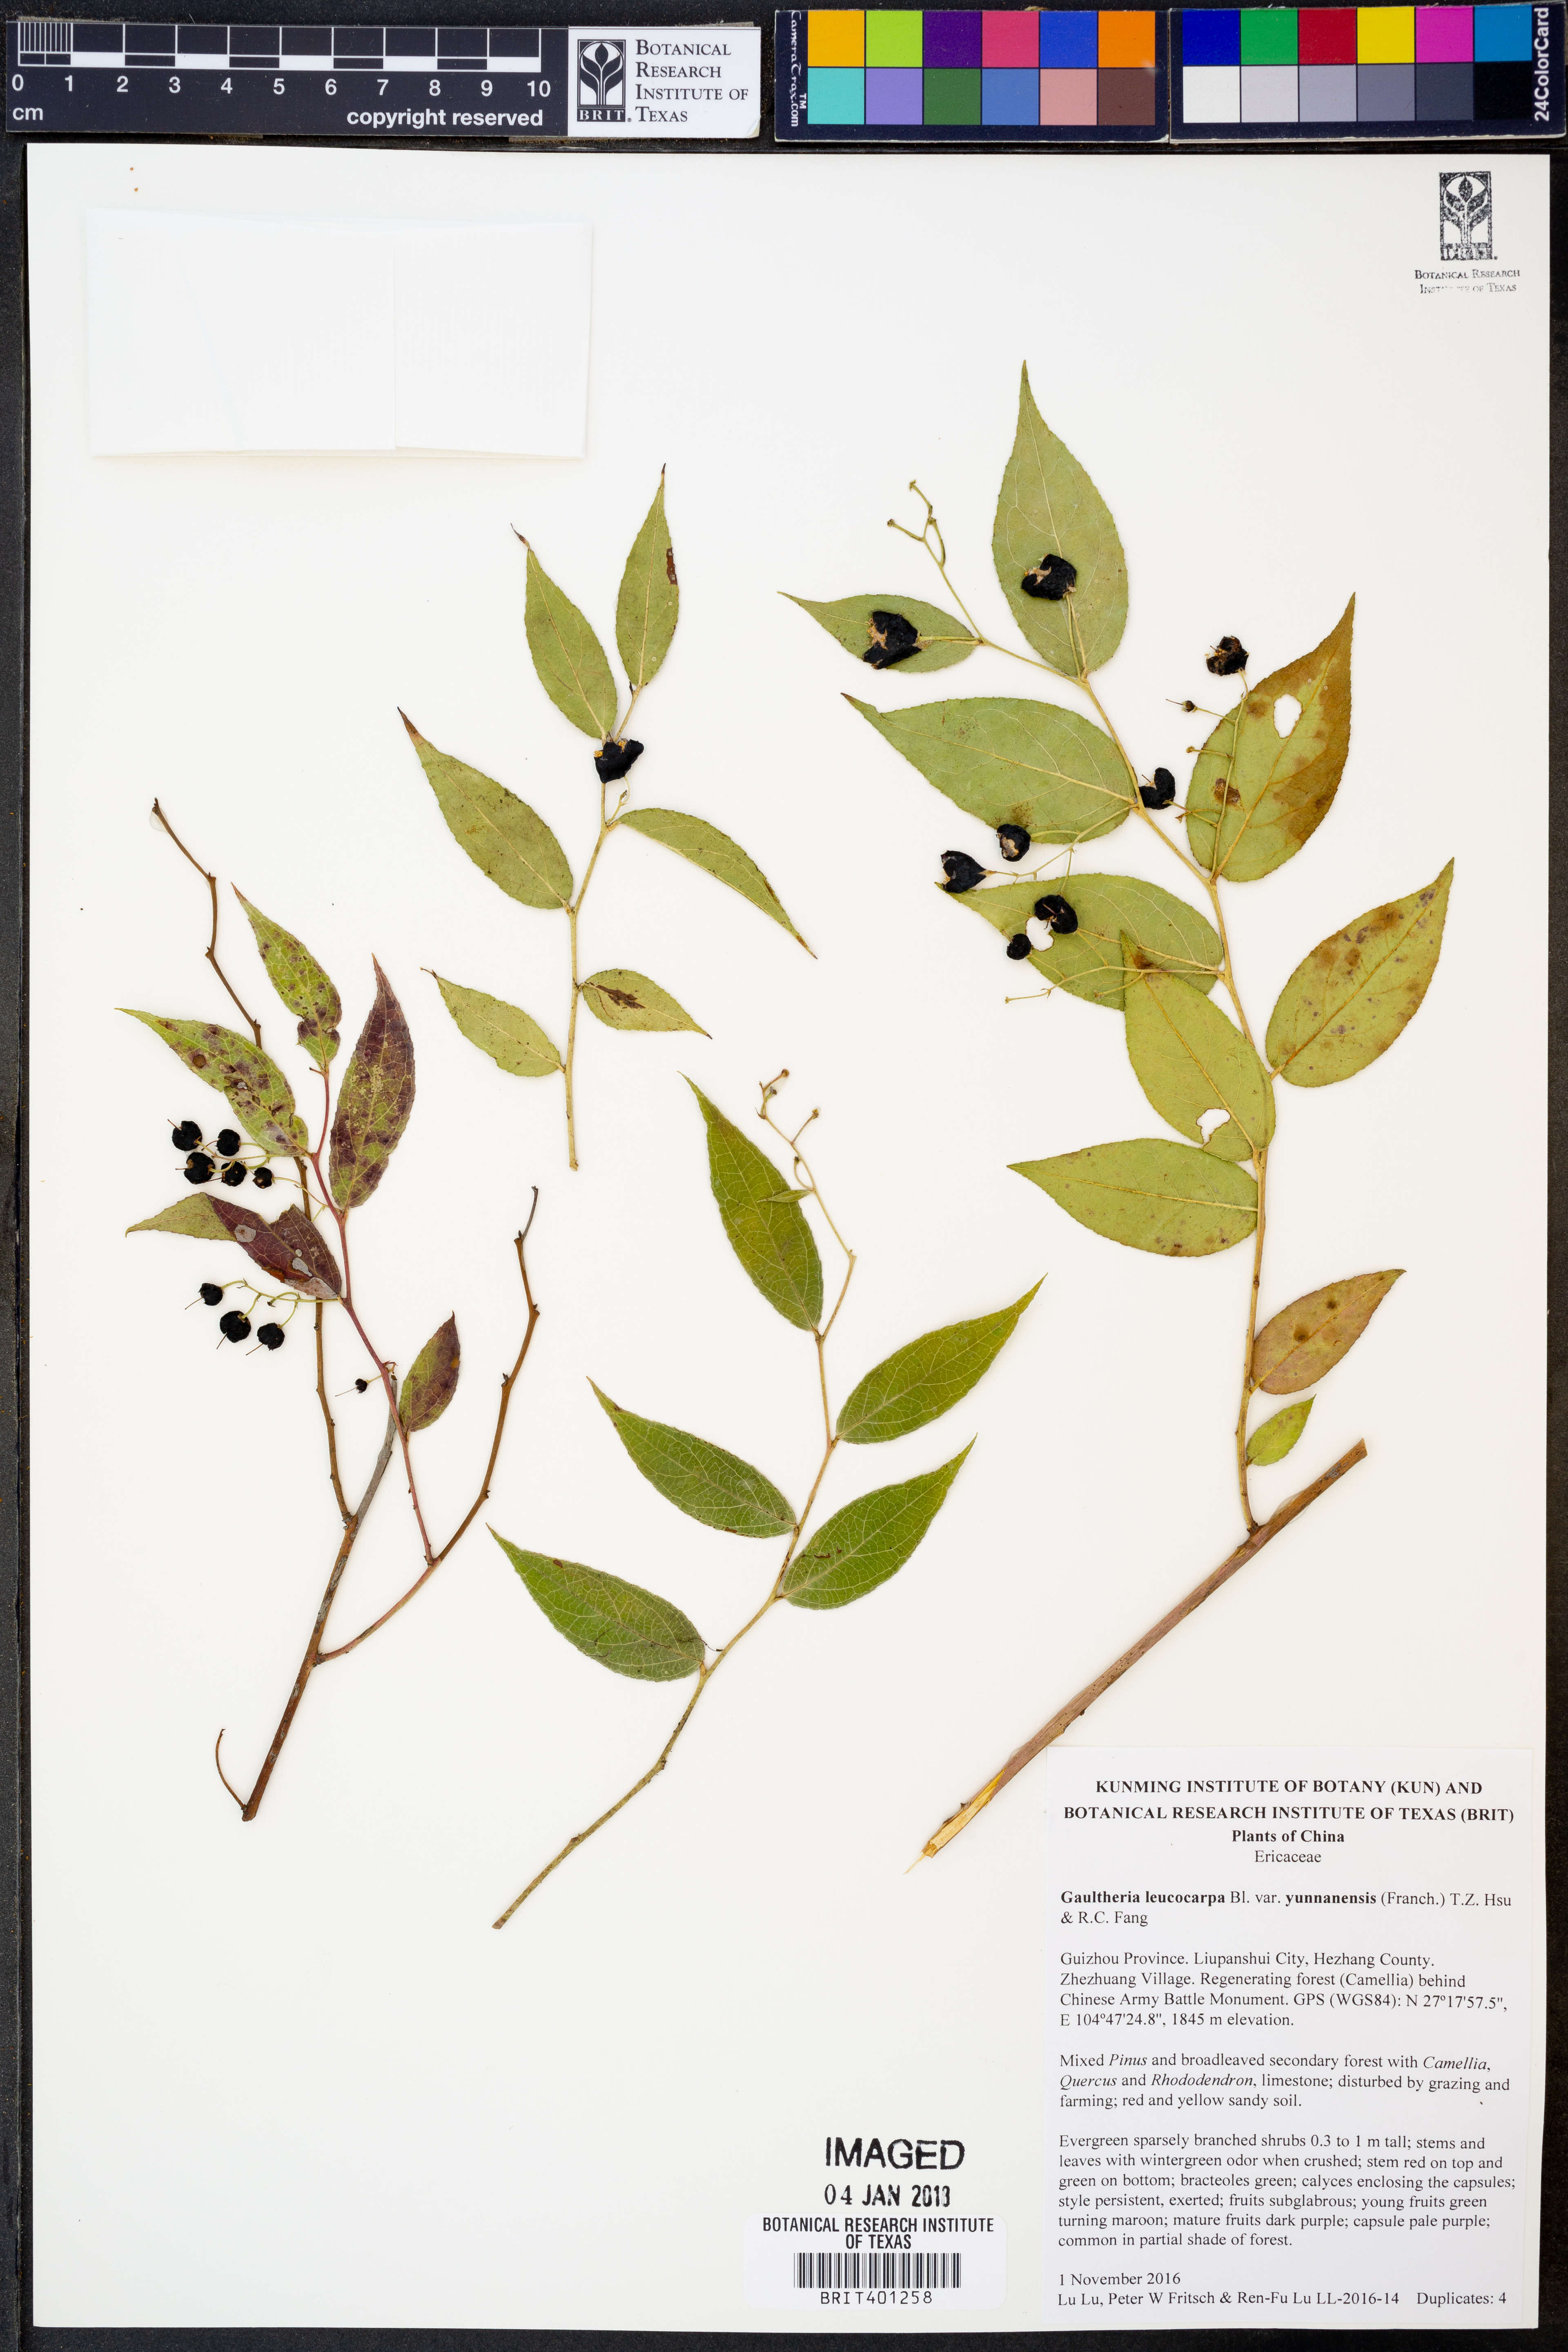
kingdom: Plantae
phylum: Tracheophyta
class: Magnoliopsida
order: Ericales
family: Ericaceae
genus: Gaultheria
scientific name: Gaultheria leucocarpa
